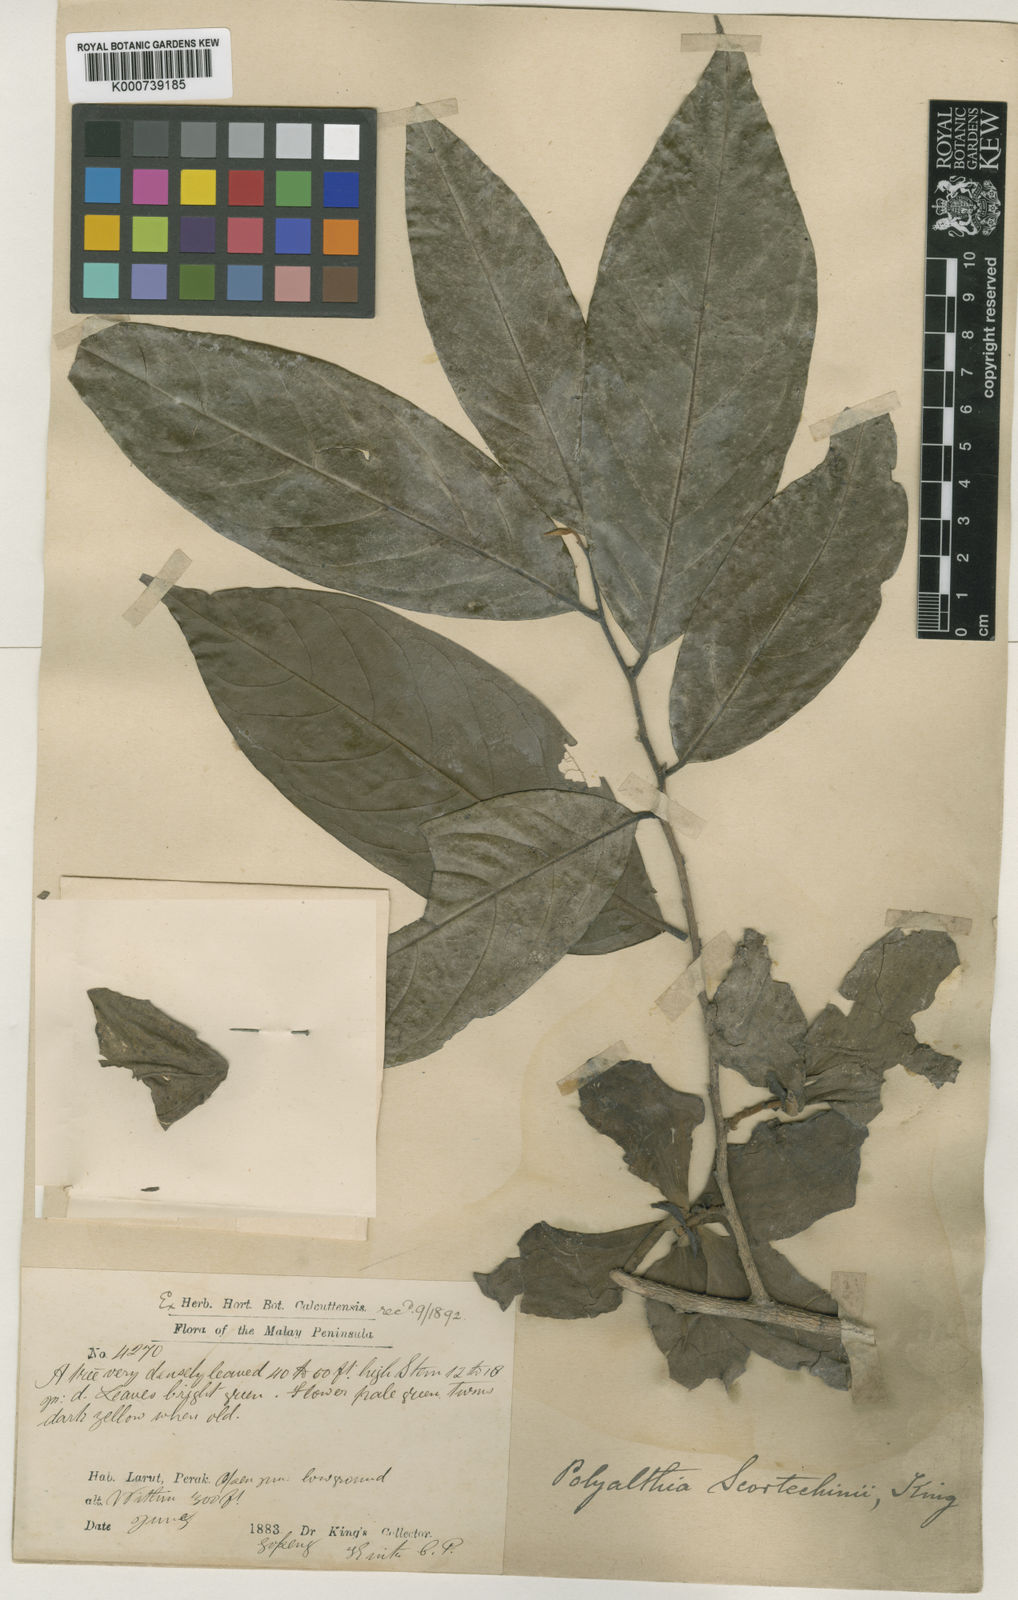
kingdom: Plantae
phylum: Tracheophyta
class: Magnoliopsida
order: Magnoliales
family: Annonaceae
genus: Hubera
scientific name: Hubera rumphii
